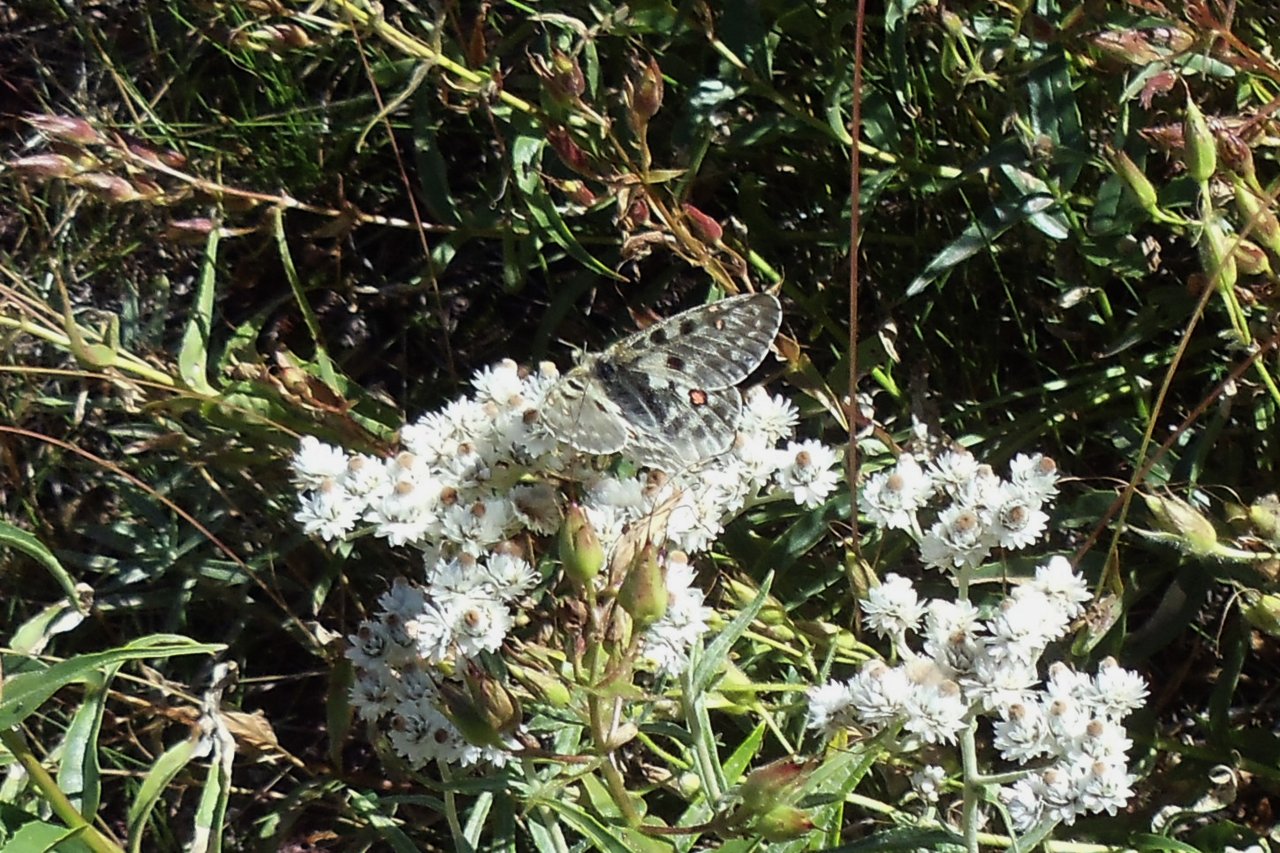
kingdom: Animalia
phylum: Arthropoda
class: Insecta
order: Lepidoptera
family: Papilionidae
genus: Parnassius
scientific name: Parnassius smintheus
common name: Rocky Mountain Parnassian
